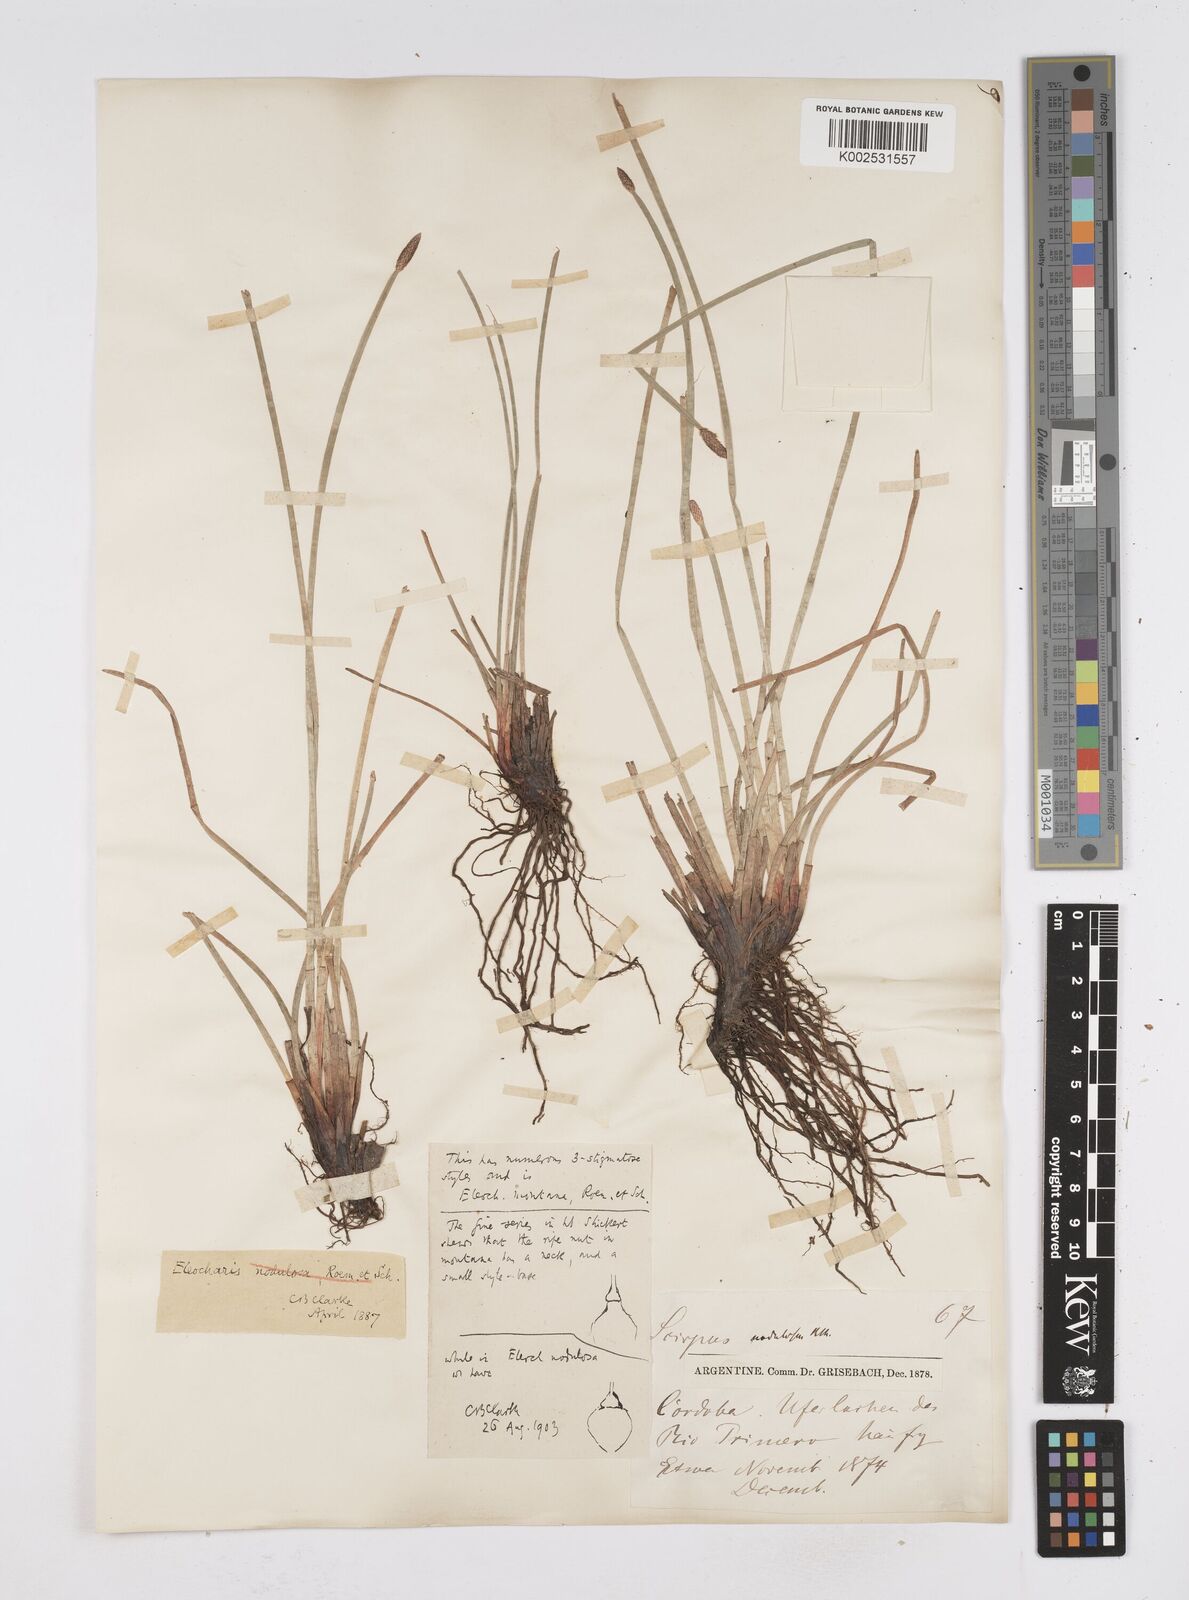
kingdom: Plantae
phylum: Tracheophyta
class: Liliopsida
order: Poales
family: Cyperaceae
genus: Eleocharis
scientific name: Eleocharis montana
